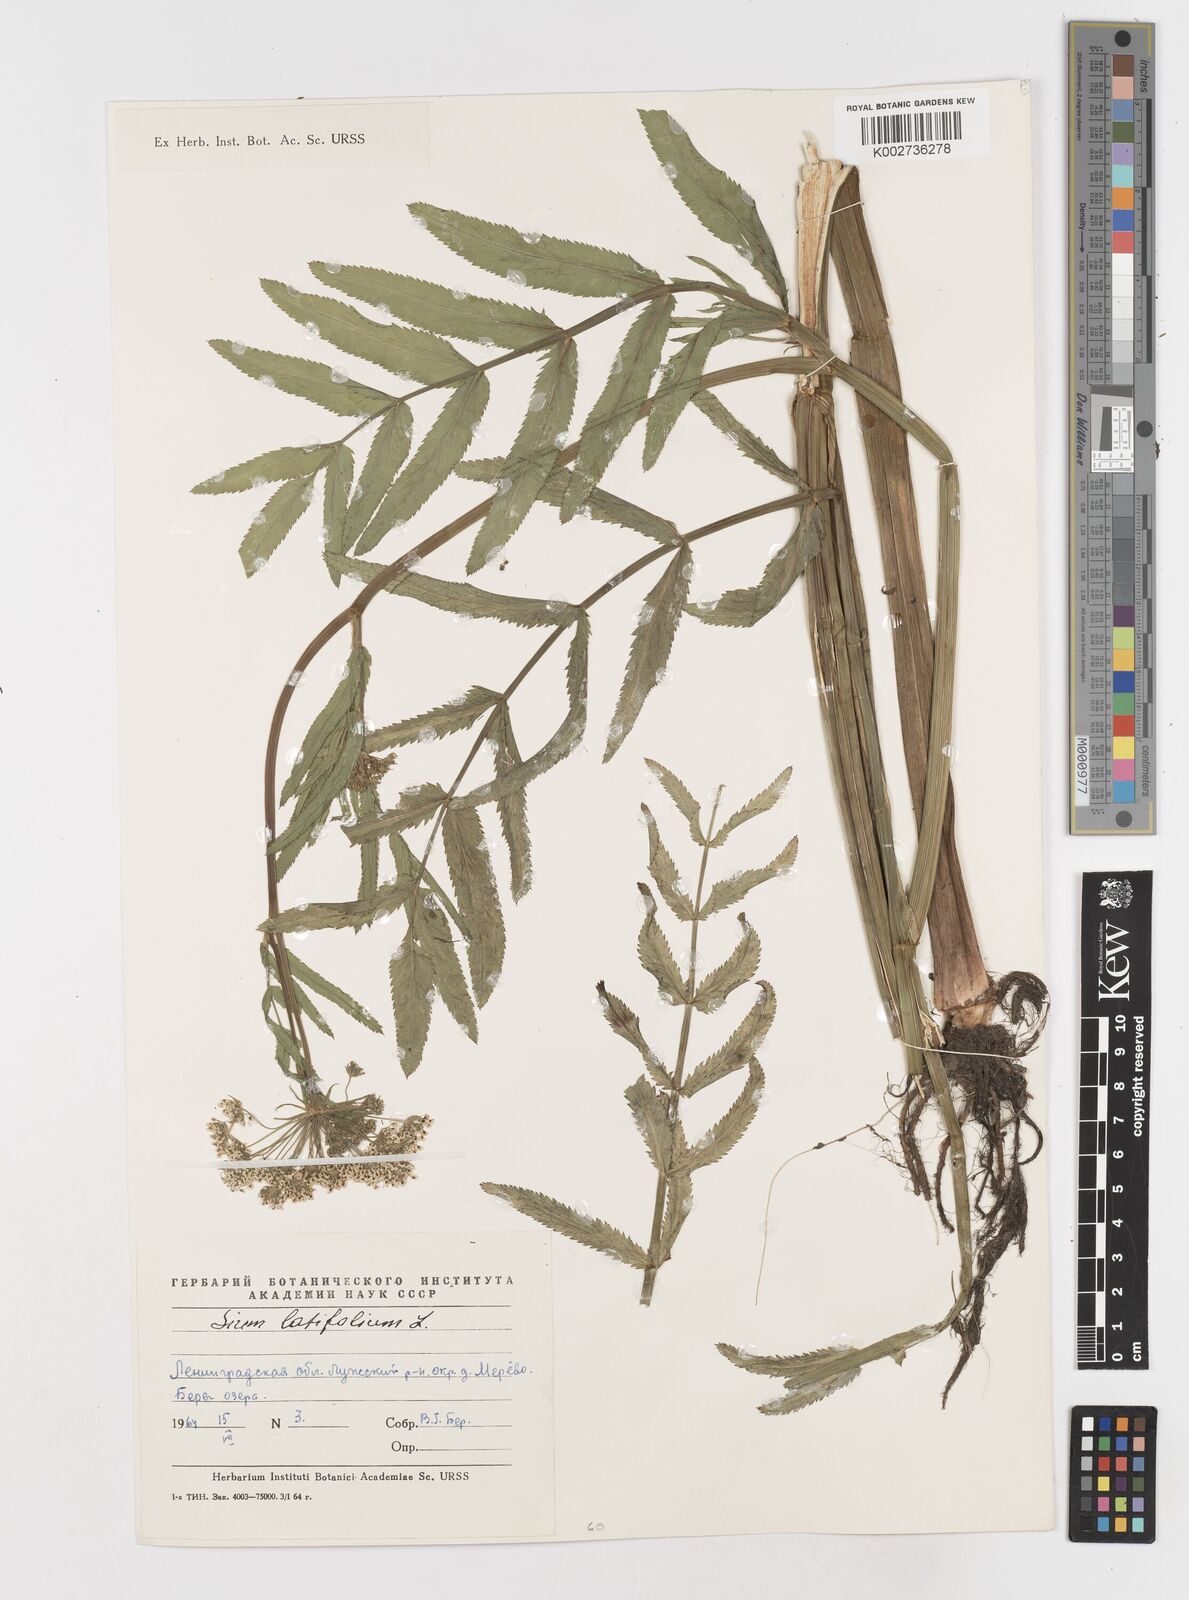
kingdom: Plantae
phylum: Tracheophyta
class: Magnoliopsida
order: Apiales
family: Apiaceae
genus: Sium
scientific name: Sium latifolium
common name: Greater water-parsnip
